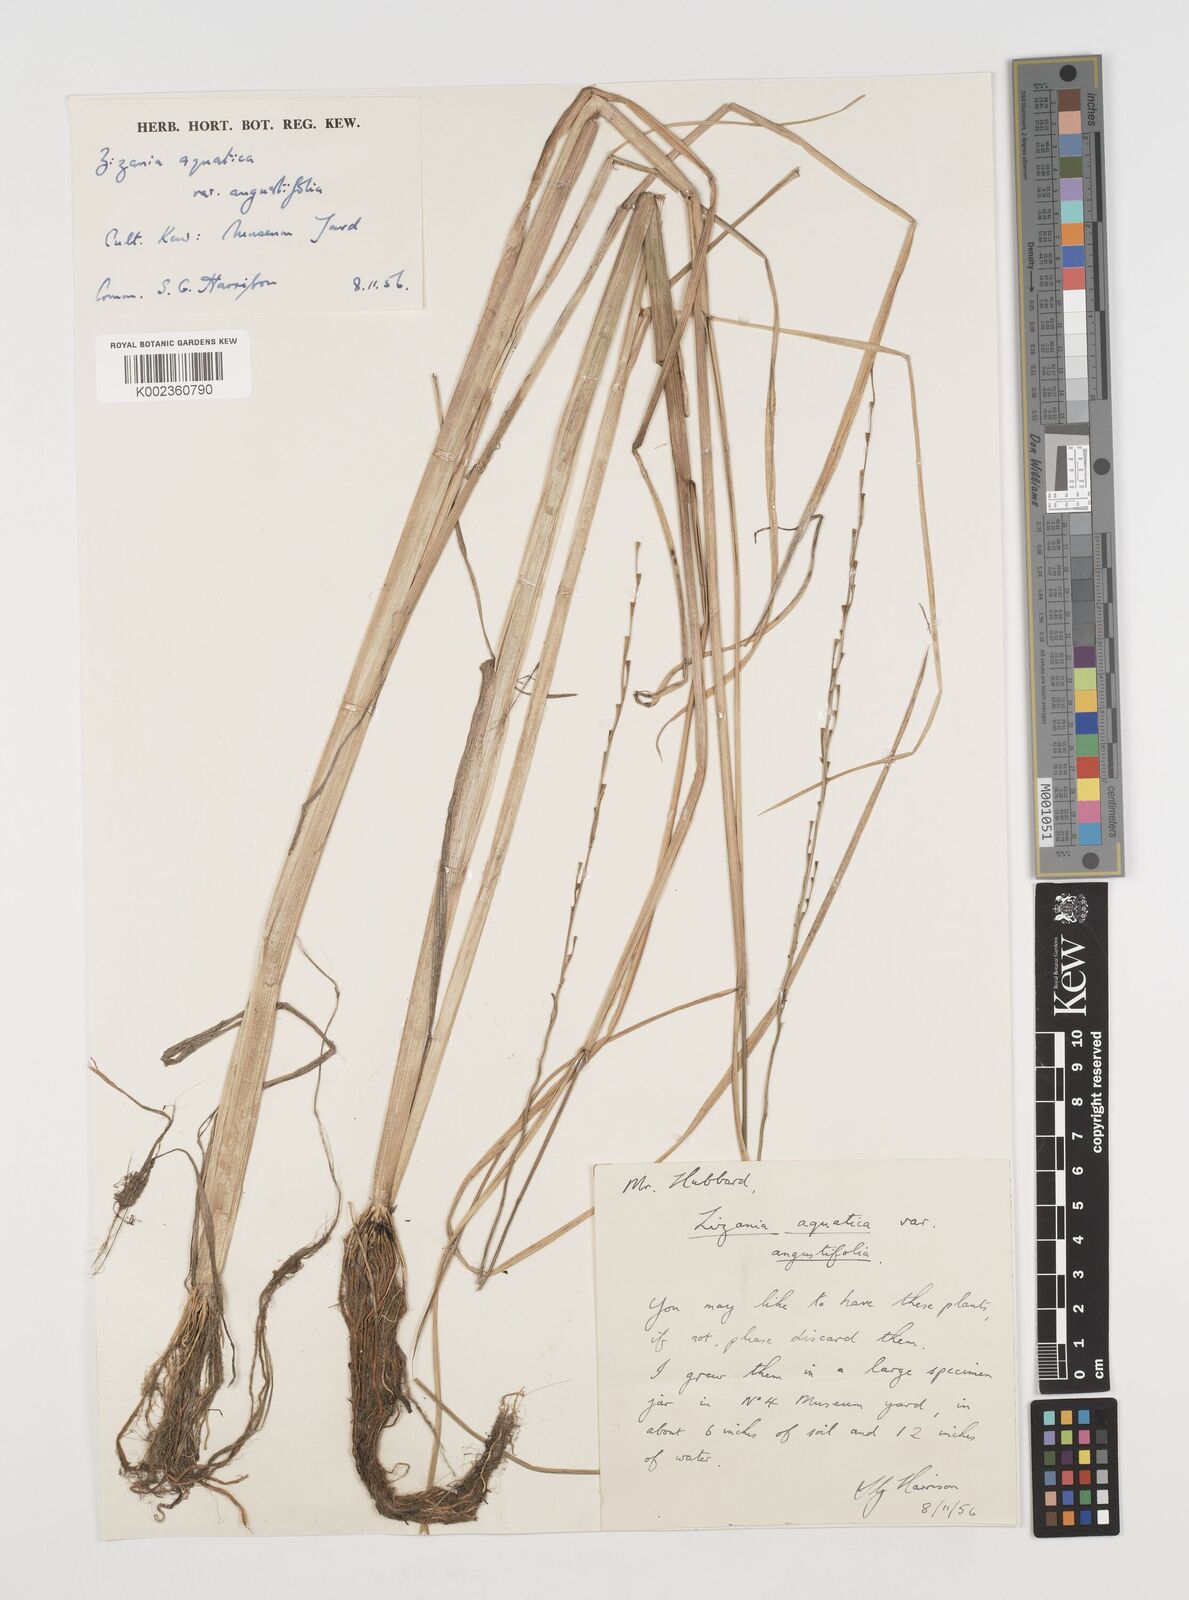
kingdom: Plantae
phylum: Tracheophyta
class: Liliopsida
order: Poales
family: Poaceae
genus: Zizania
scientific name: Zizania aquatica
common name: Annual wildrice
